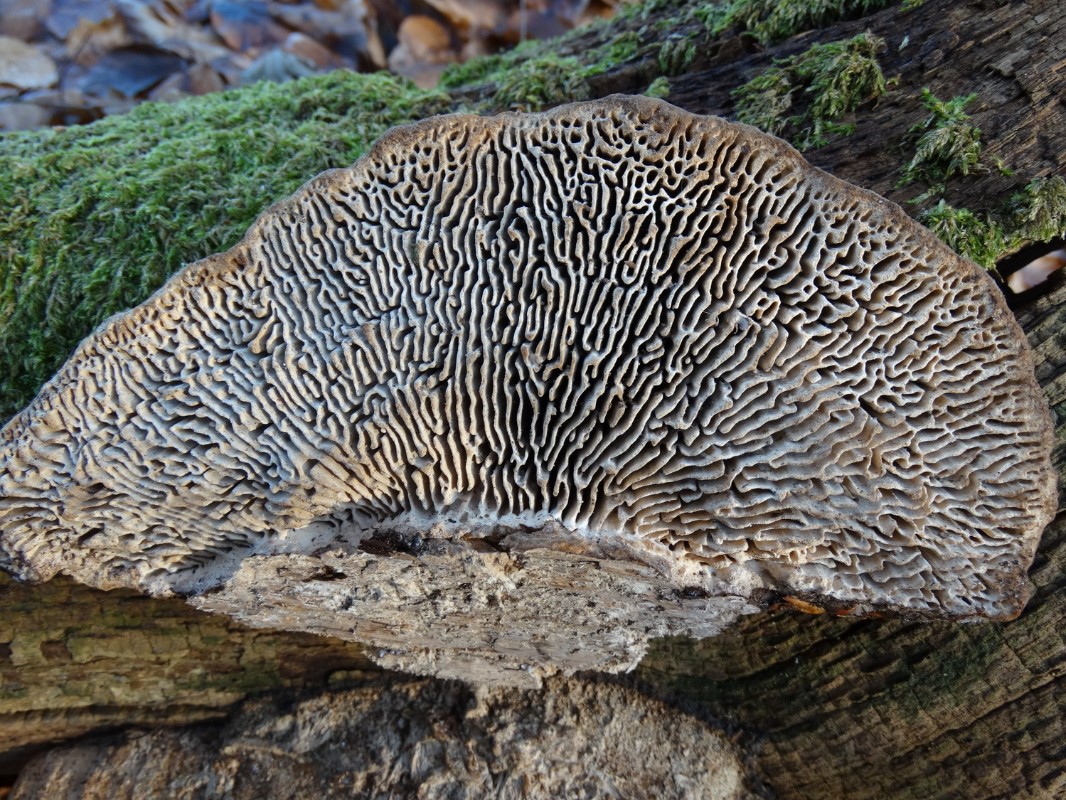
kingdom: Fungi
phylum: Basidiomycota
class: Agaricomycetes
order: Polyporales
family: Fomitopsidaceae
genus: Daedalea
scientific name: Daedalea quercina
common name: ege-labyrintsvamp
